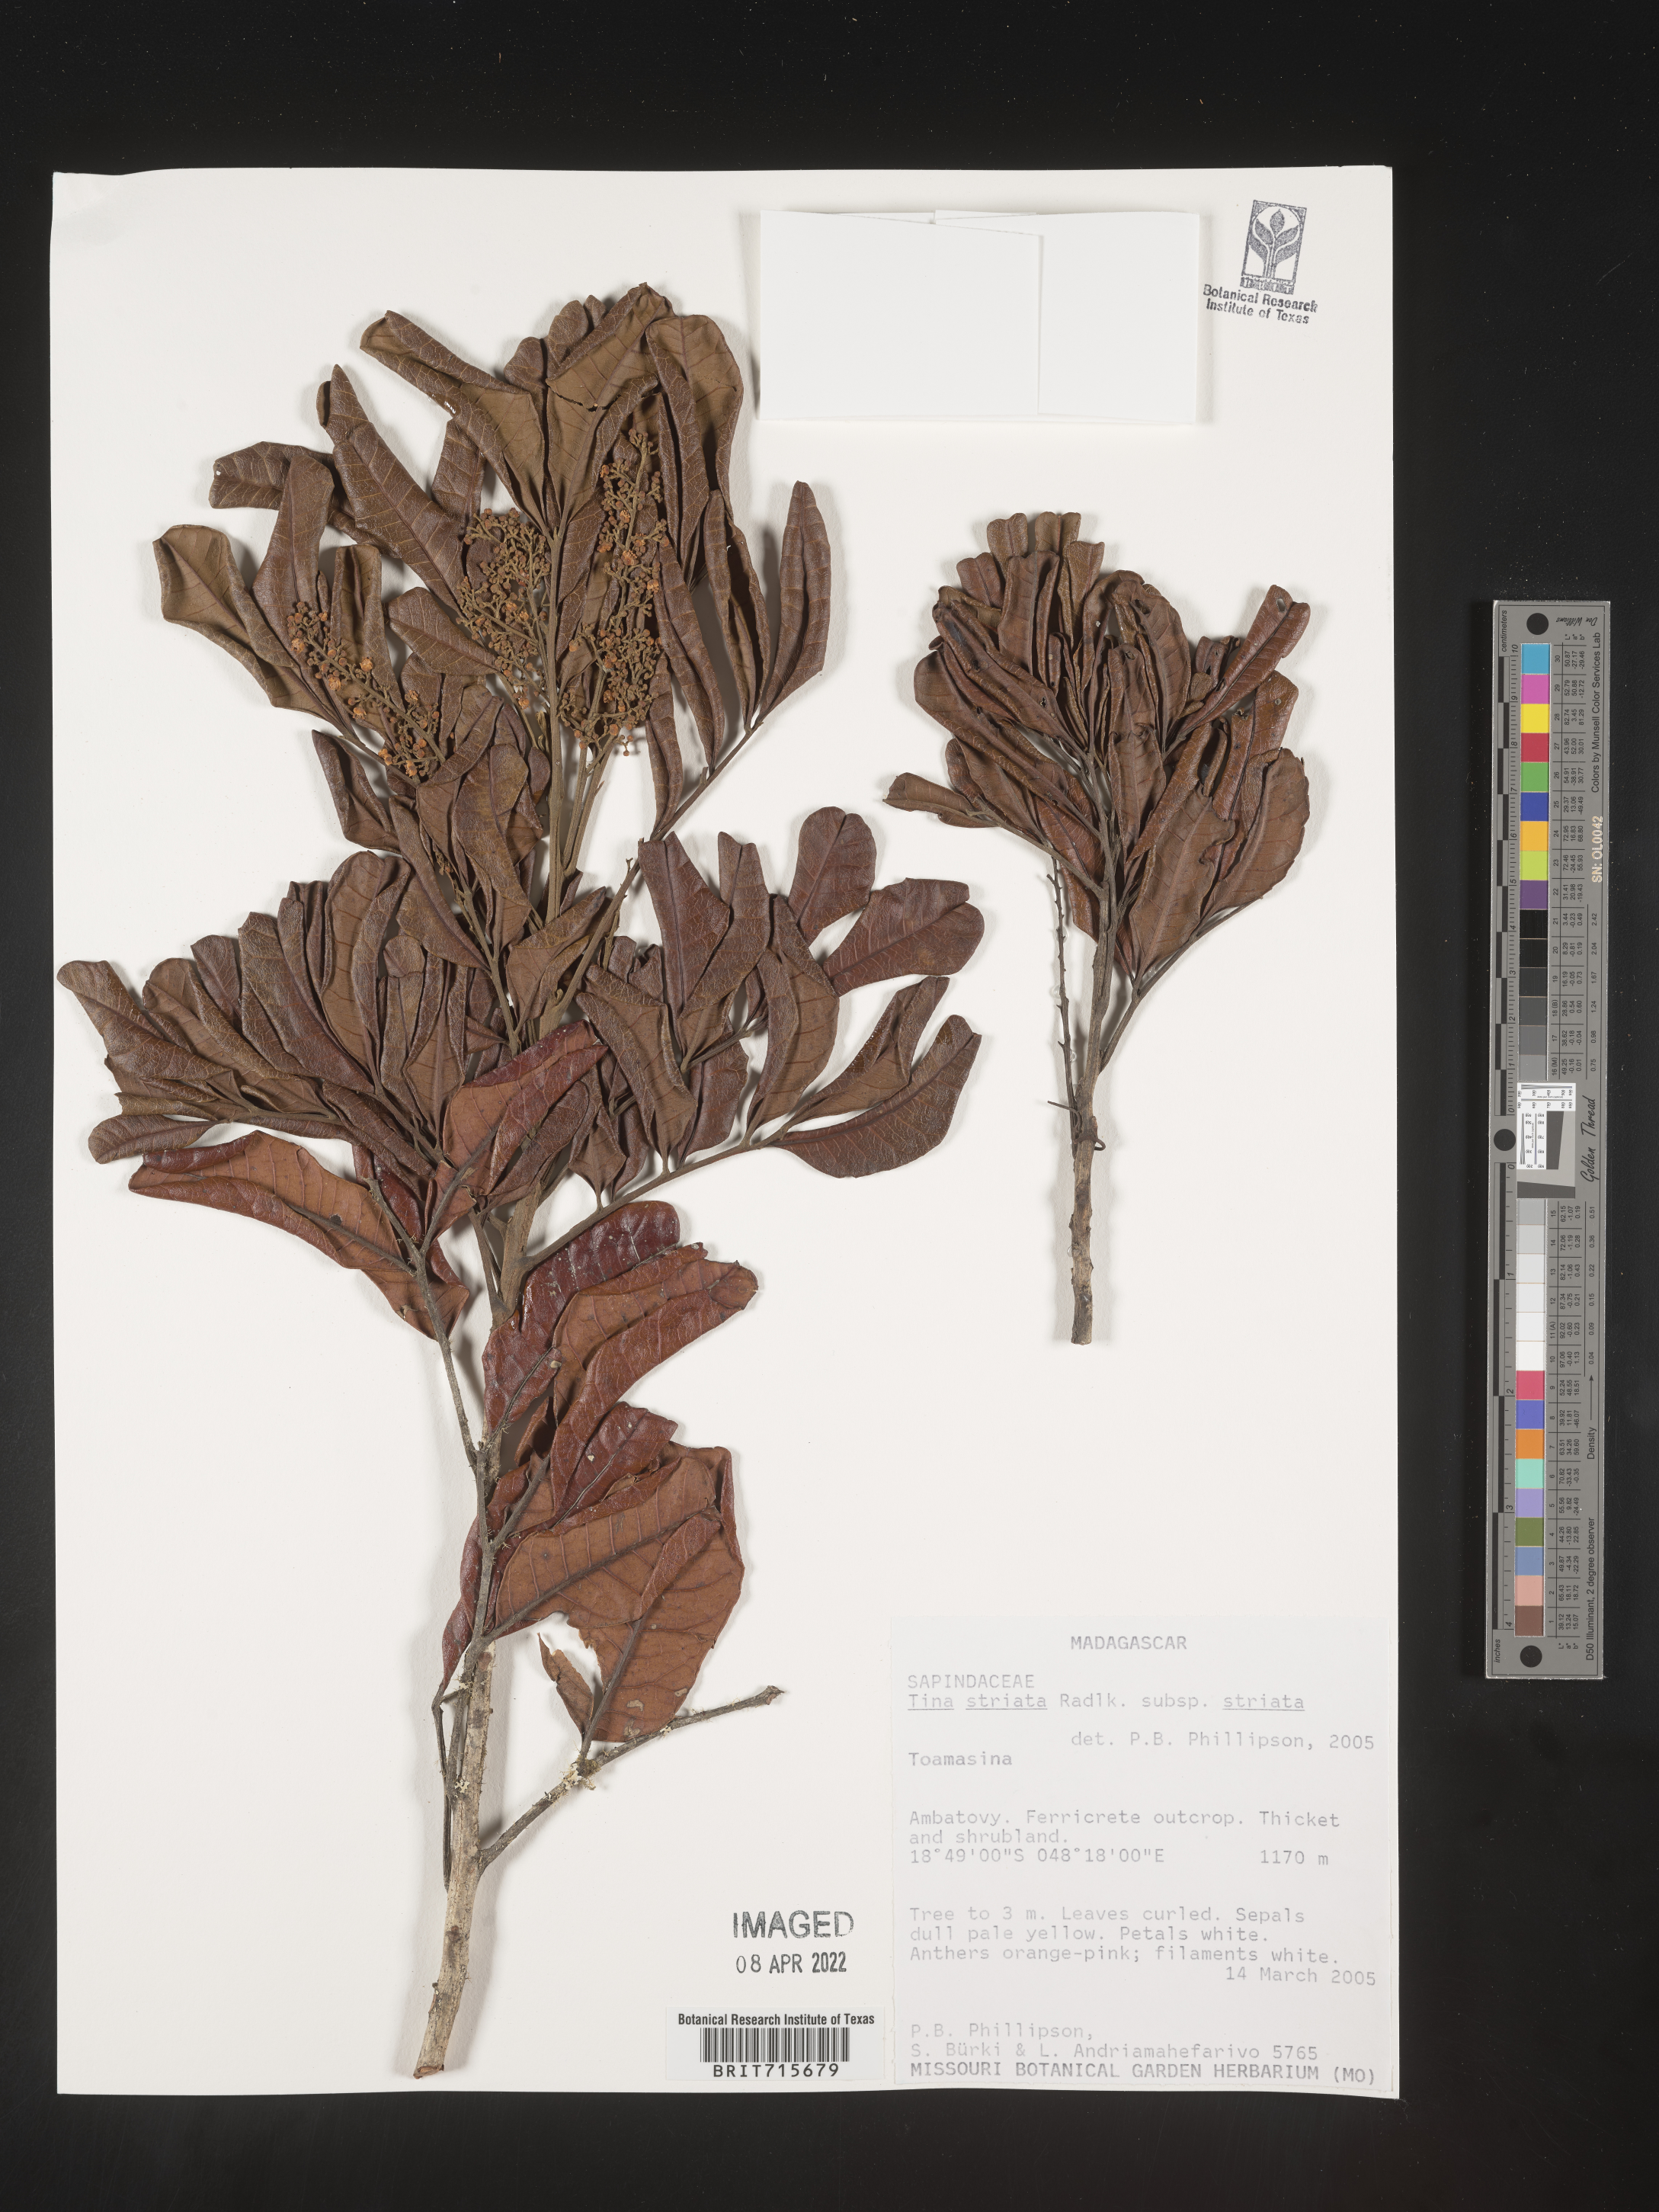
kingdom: Plantae
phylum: Tracheophyta
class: Magnoliopsida
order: Sapindales
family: Sapindaceae
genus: Tina
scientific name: Tina
